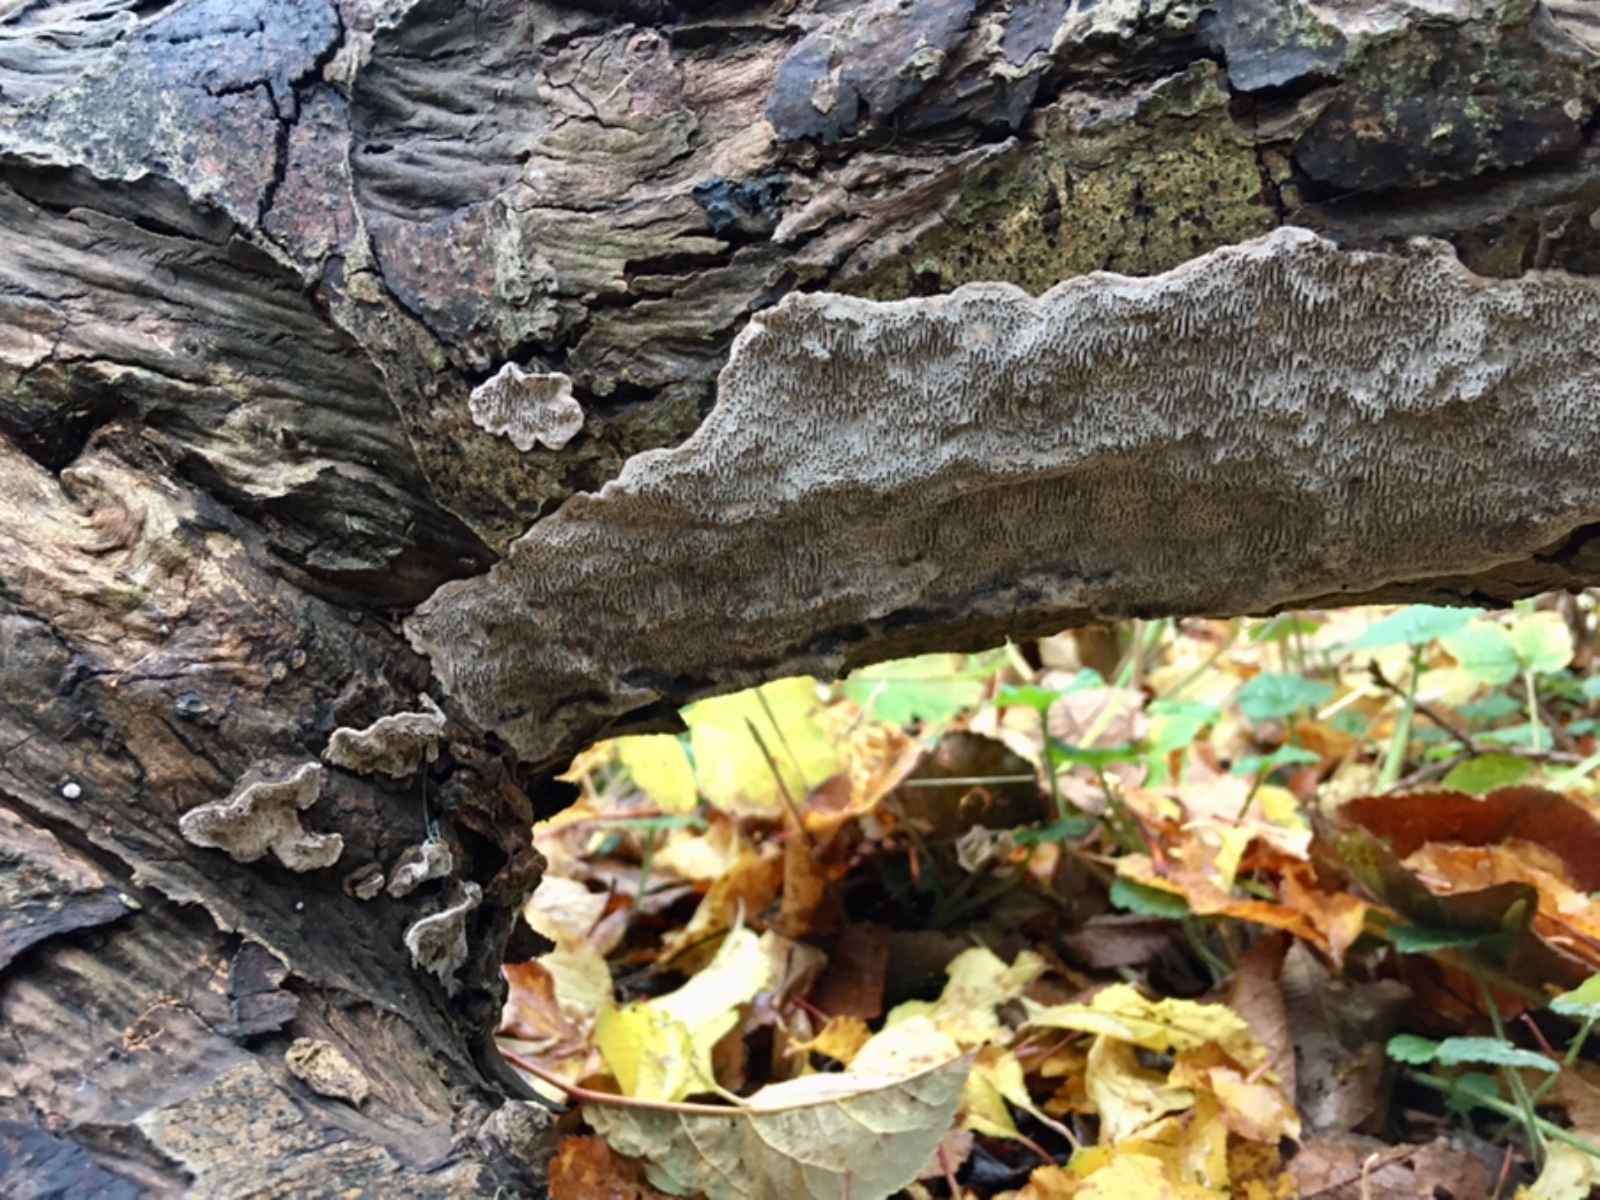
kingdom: Fungi
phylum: Basidiomycota
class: Agaricomycetes
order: Polyporales
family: Polyporaceae
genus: Podofomes
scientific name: Podofomes mollis
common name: blød begporesvamp
